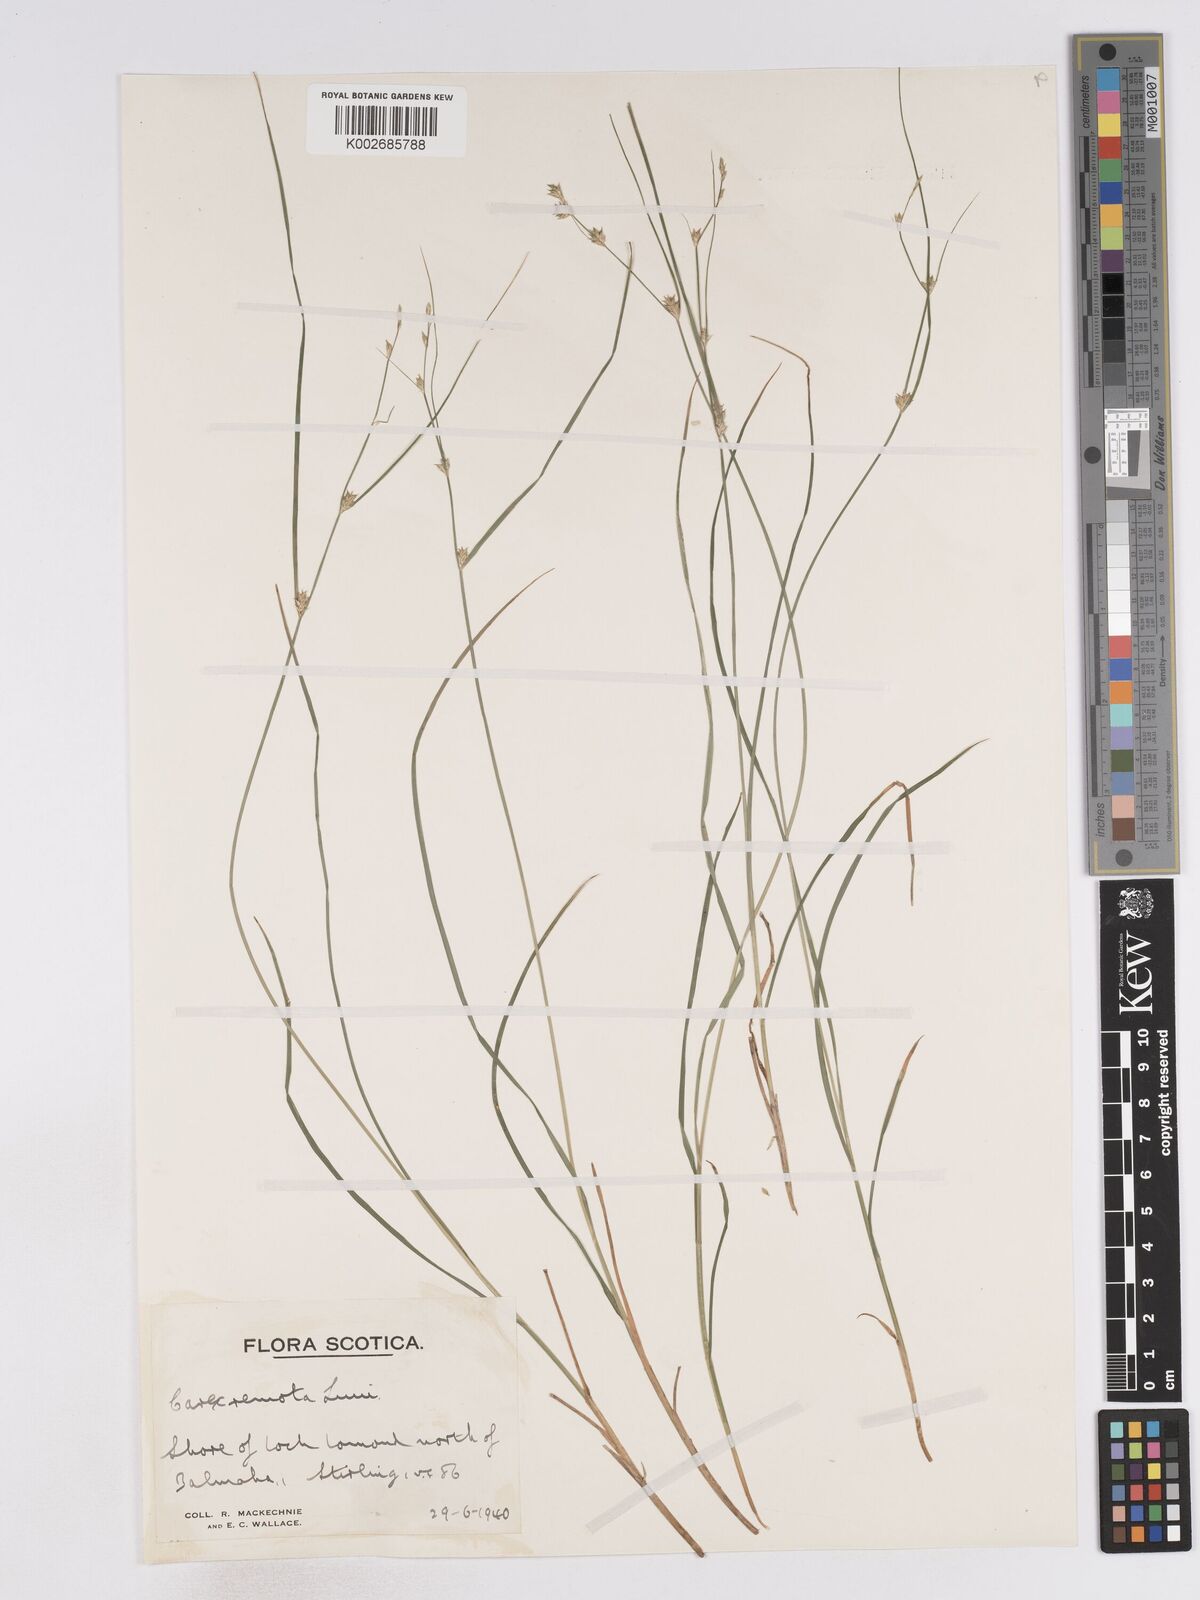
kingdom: Plantae
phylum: Tracheophyta
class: Liliopsida
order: Poales
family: Cyperaceae
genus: Carex
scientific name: Carex remota
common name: Remote sedge
